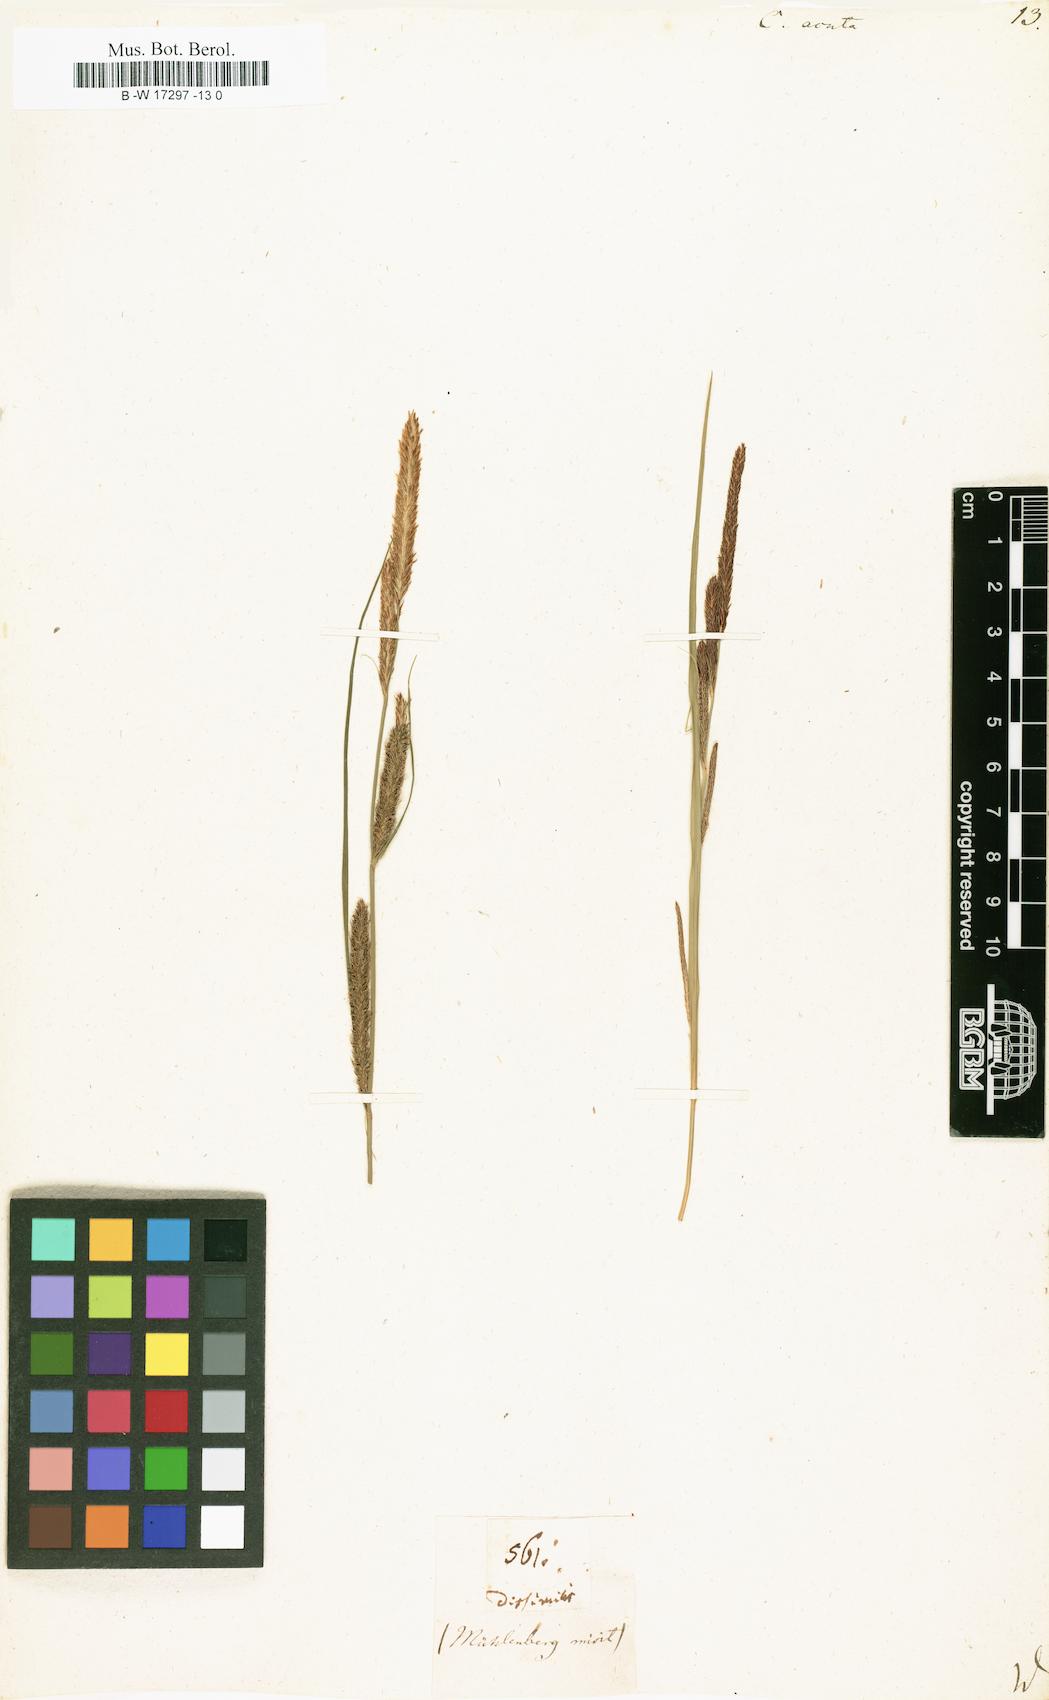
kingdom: Plantae
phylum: Tracheophyta
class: Liliopsida
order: Poales
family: Cyperaceae
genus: Carex
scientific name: Carex acuta
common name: Slender tufted-sedge
